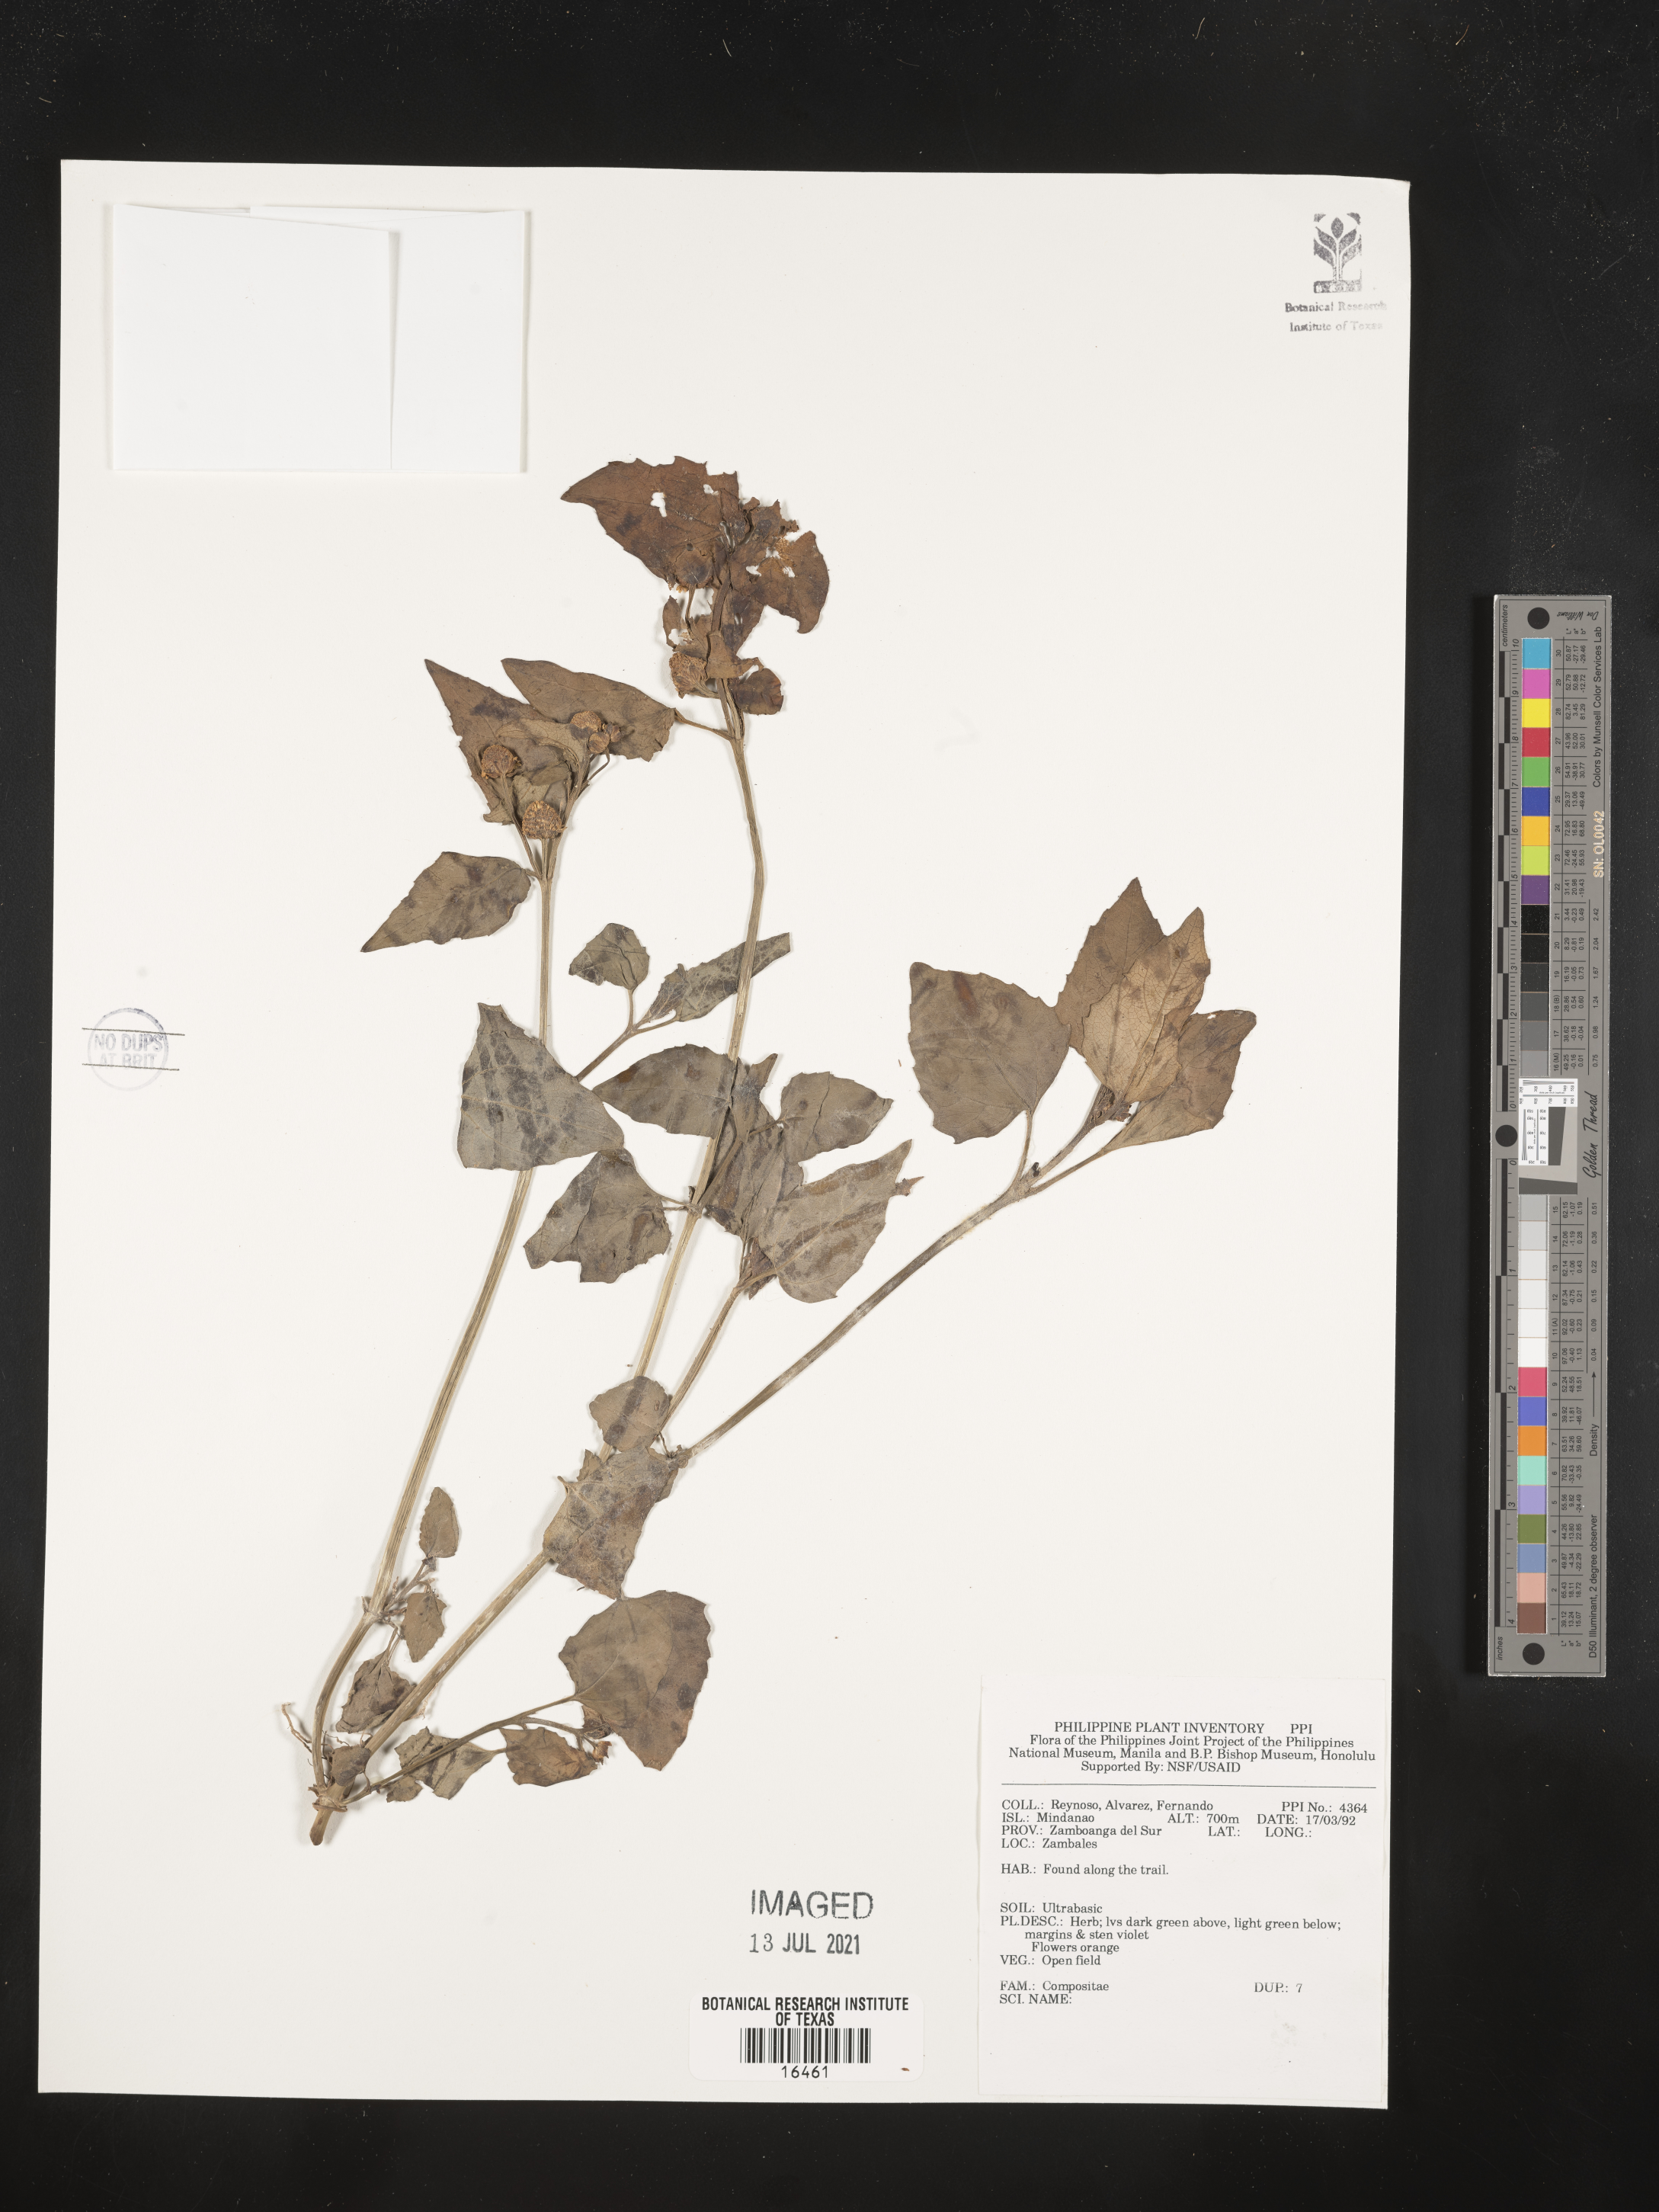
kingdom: Plantae
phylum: Tracheophyta
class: Magnoliopsida
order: Asterales
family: Asteraceae
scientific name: Asteraceae
